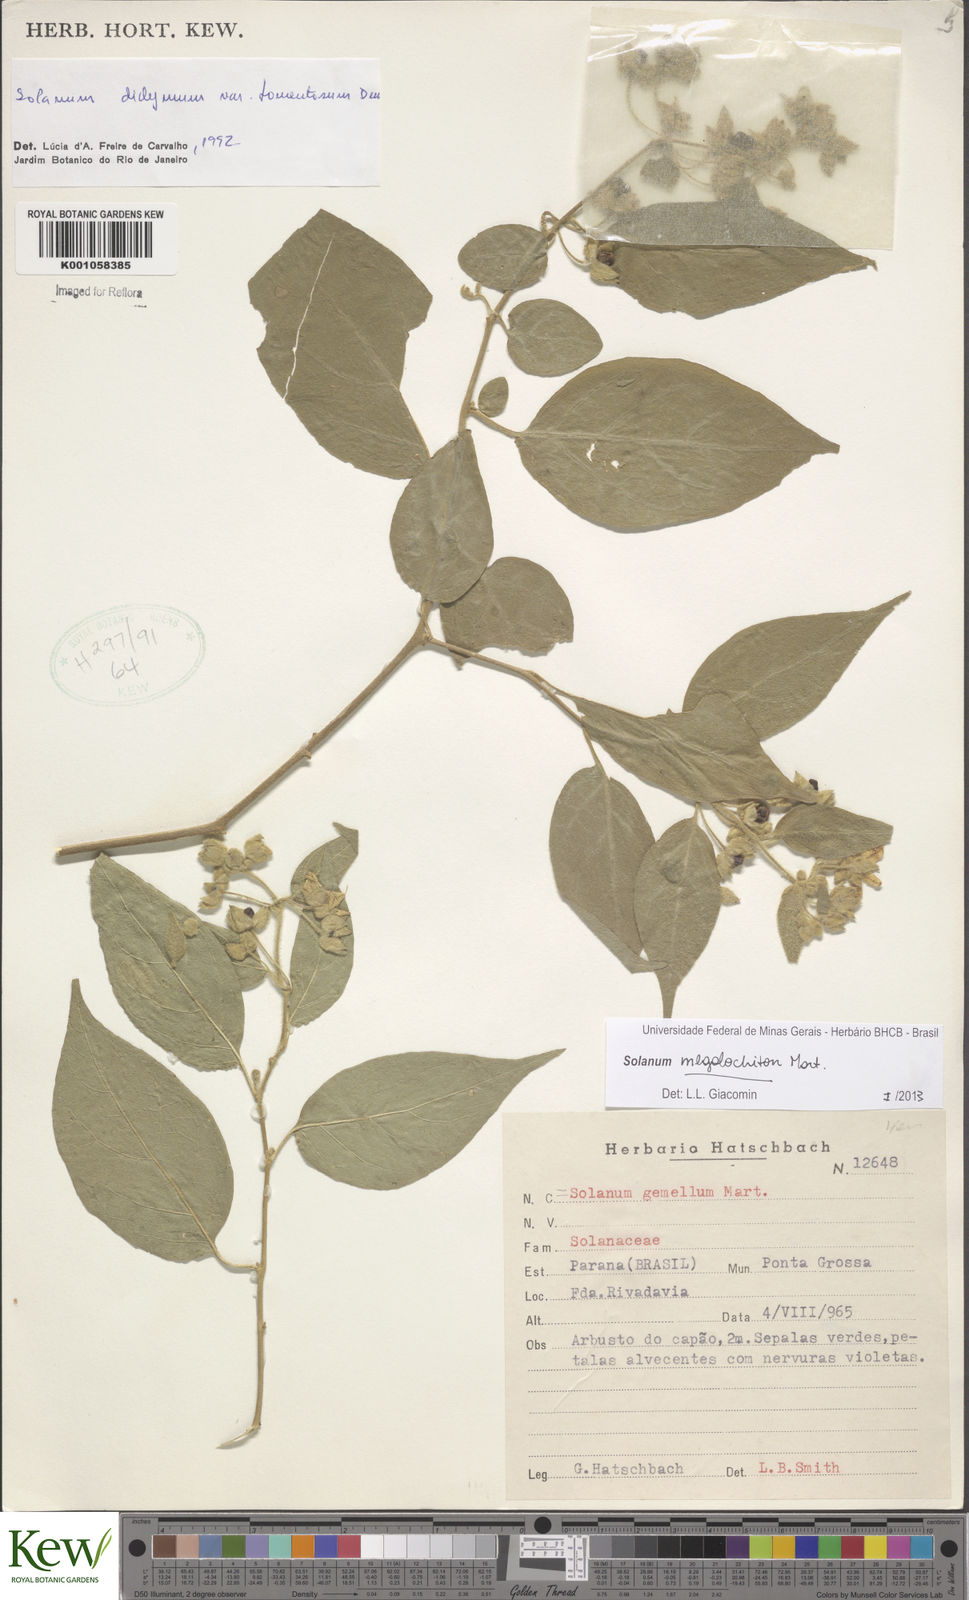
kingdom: Plantae
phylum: Tracheophyta
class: Magnoliopsida
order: Solanales
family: Solanaceae
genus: Solanum
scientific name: Solanum didymum
